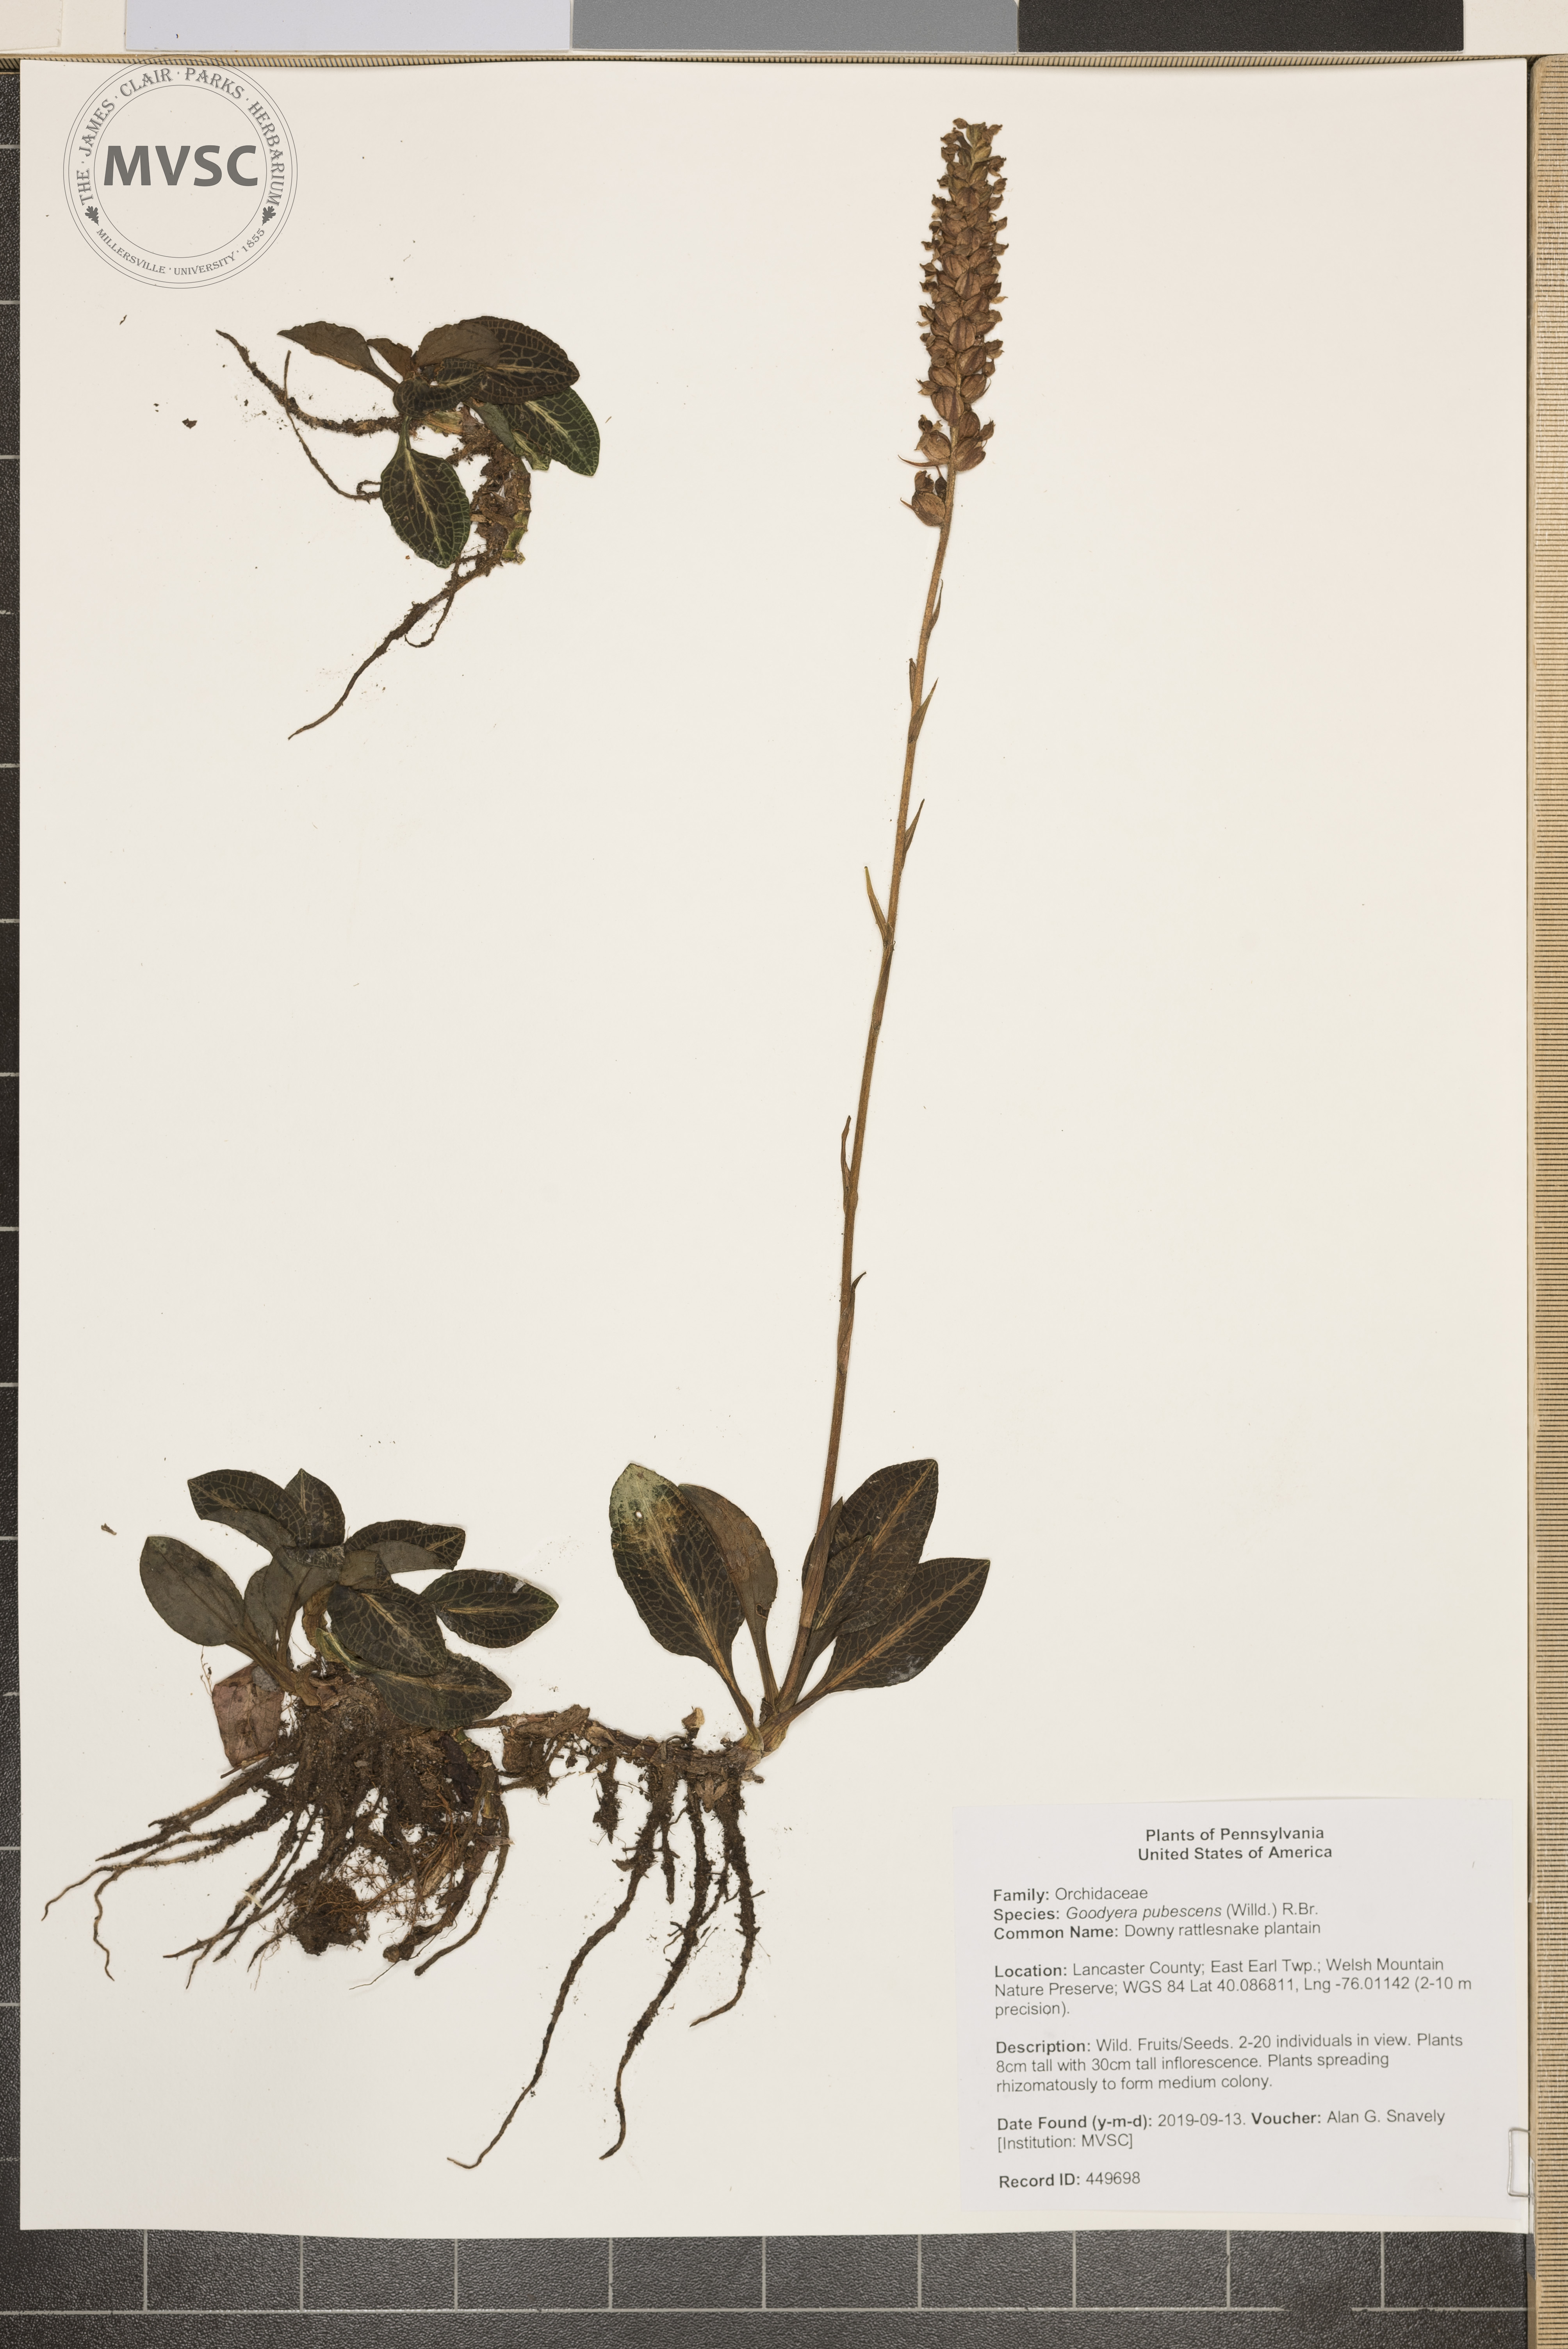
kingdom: Plantae
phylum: Tracheophyta
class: Liliopsida
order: Asparagales
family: Orchidaceae
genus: Goodyera
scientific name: Goodyera pubescens
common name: Downy rattlesnake plantain
